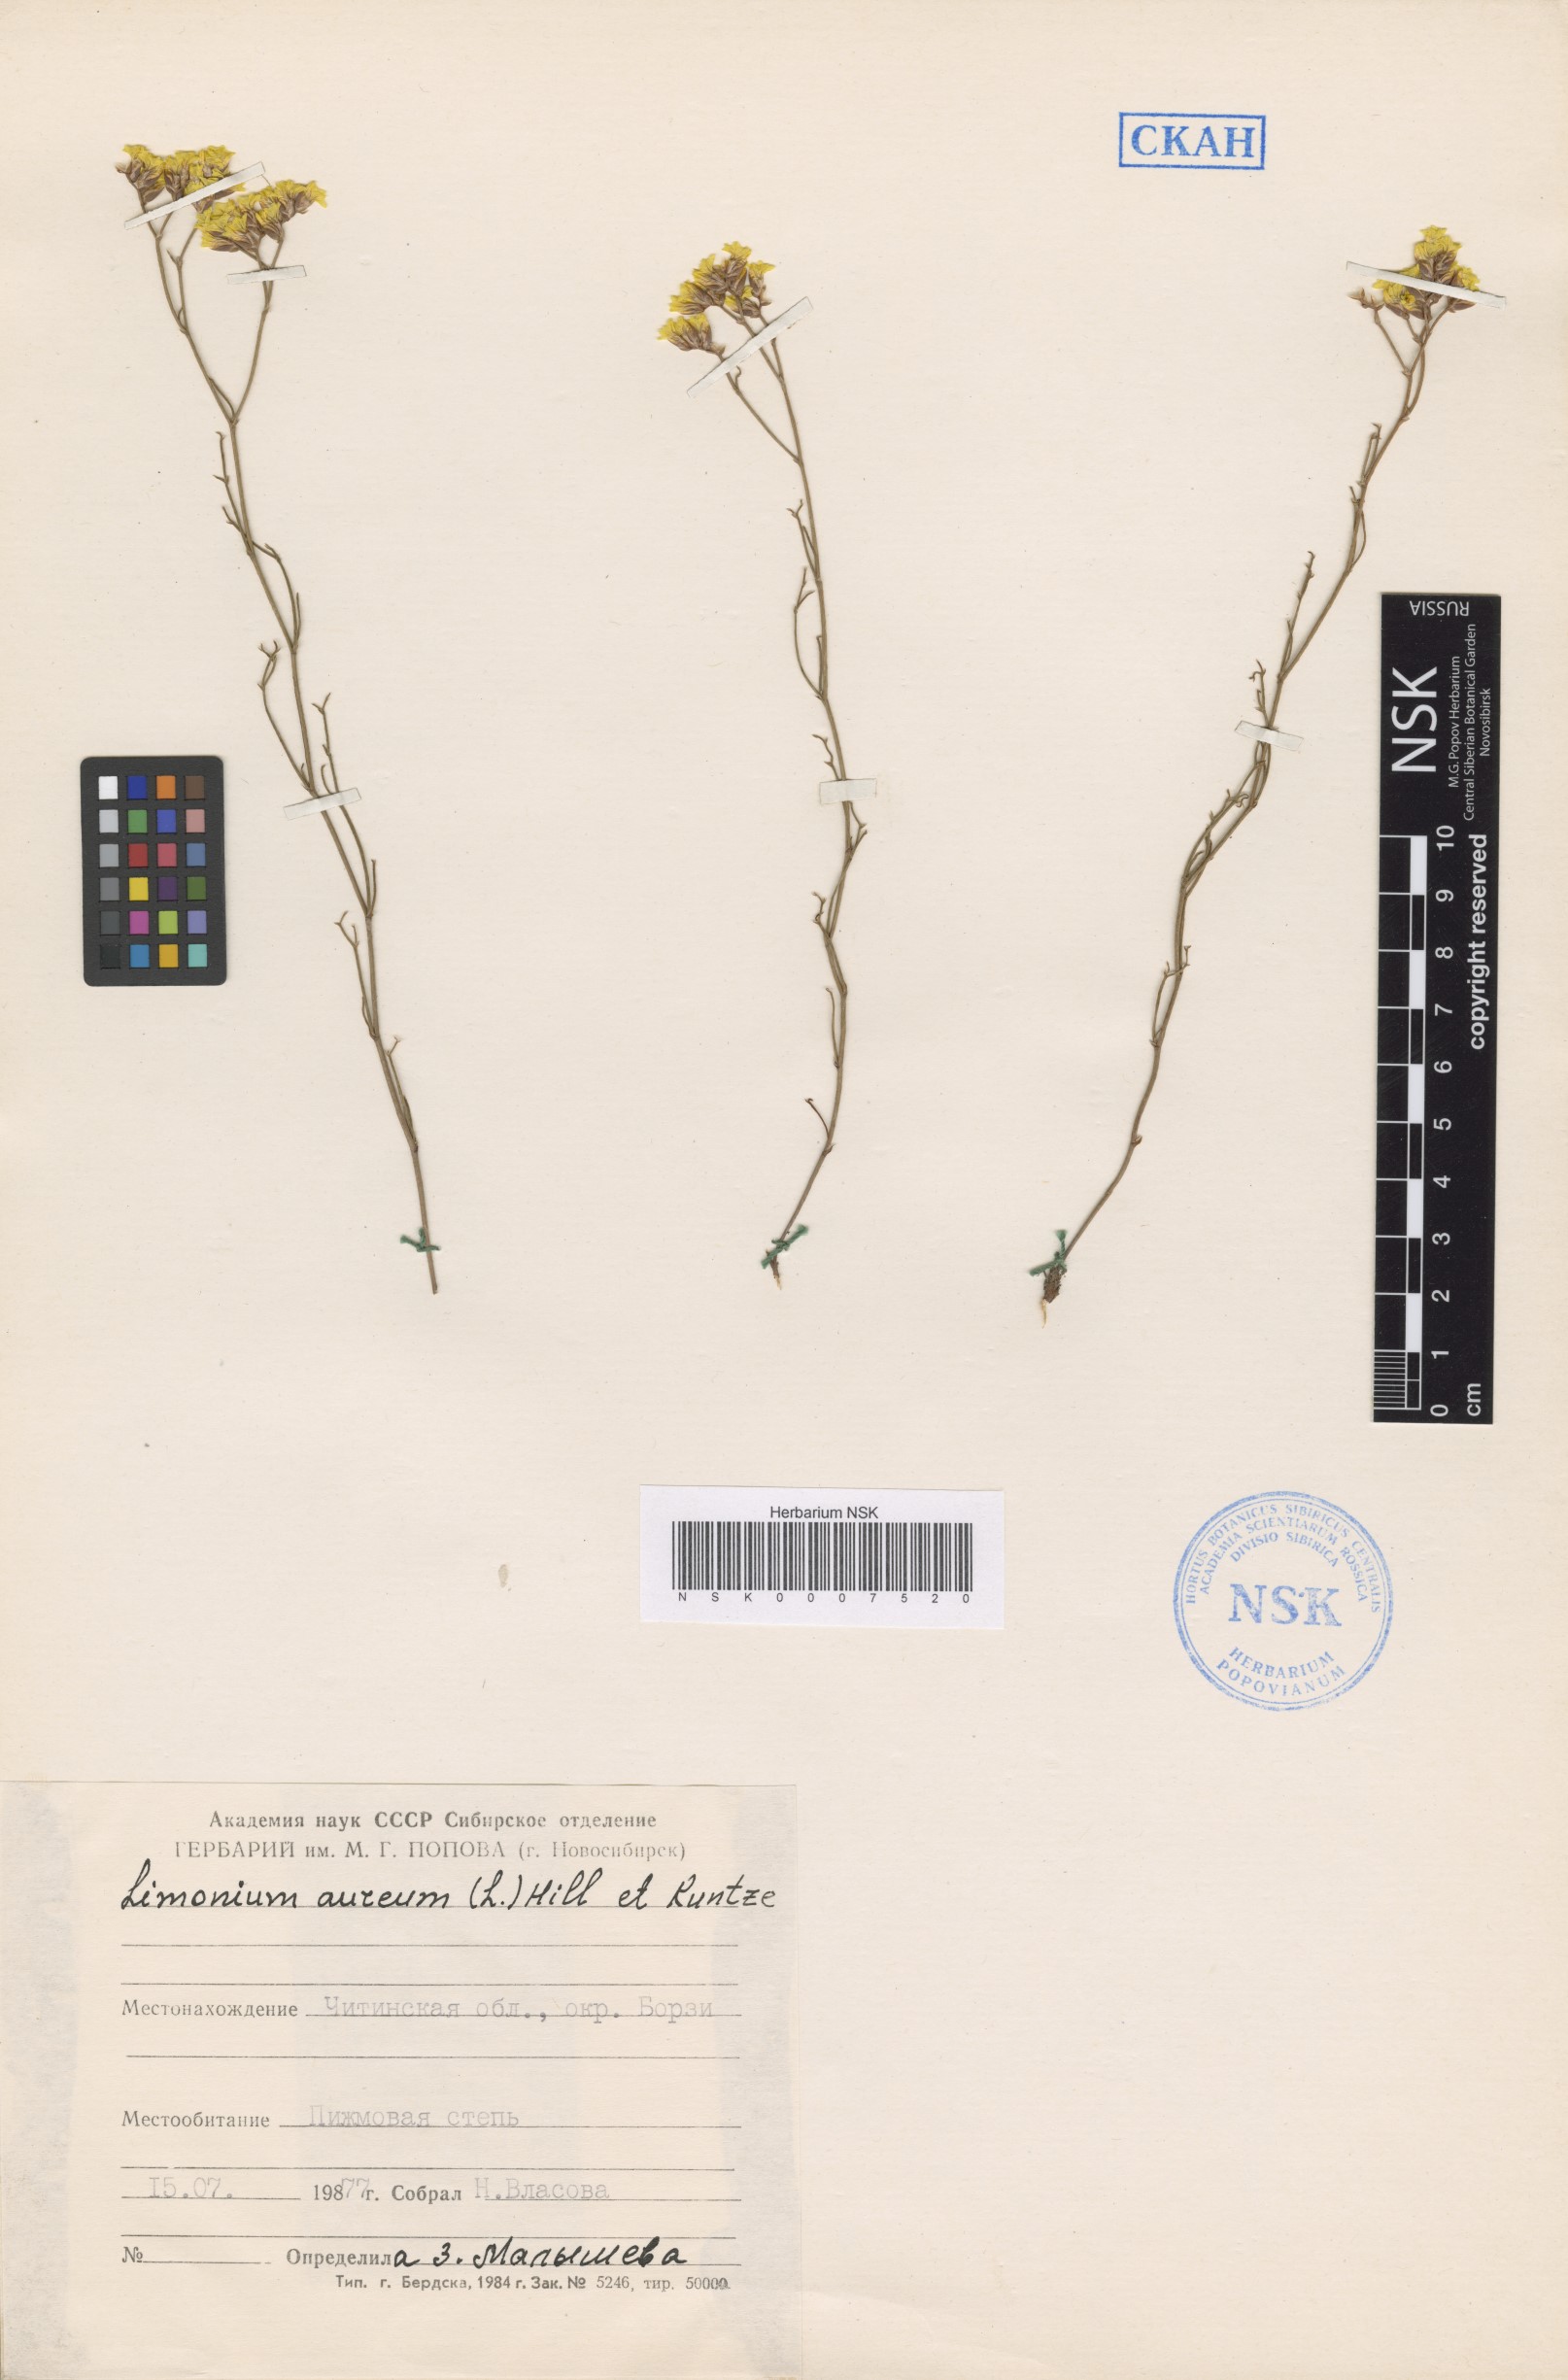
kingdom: Plantae
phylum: Tracheophyta
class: Magnoliopsida
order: Caryophyllales
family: Plumbaginaceae
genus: Limonium
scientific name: Limonium aureum
